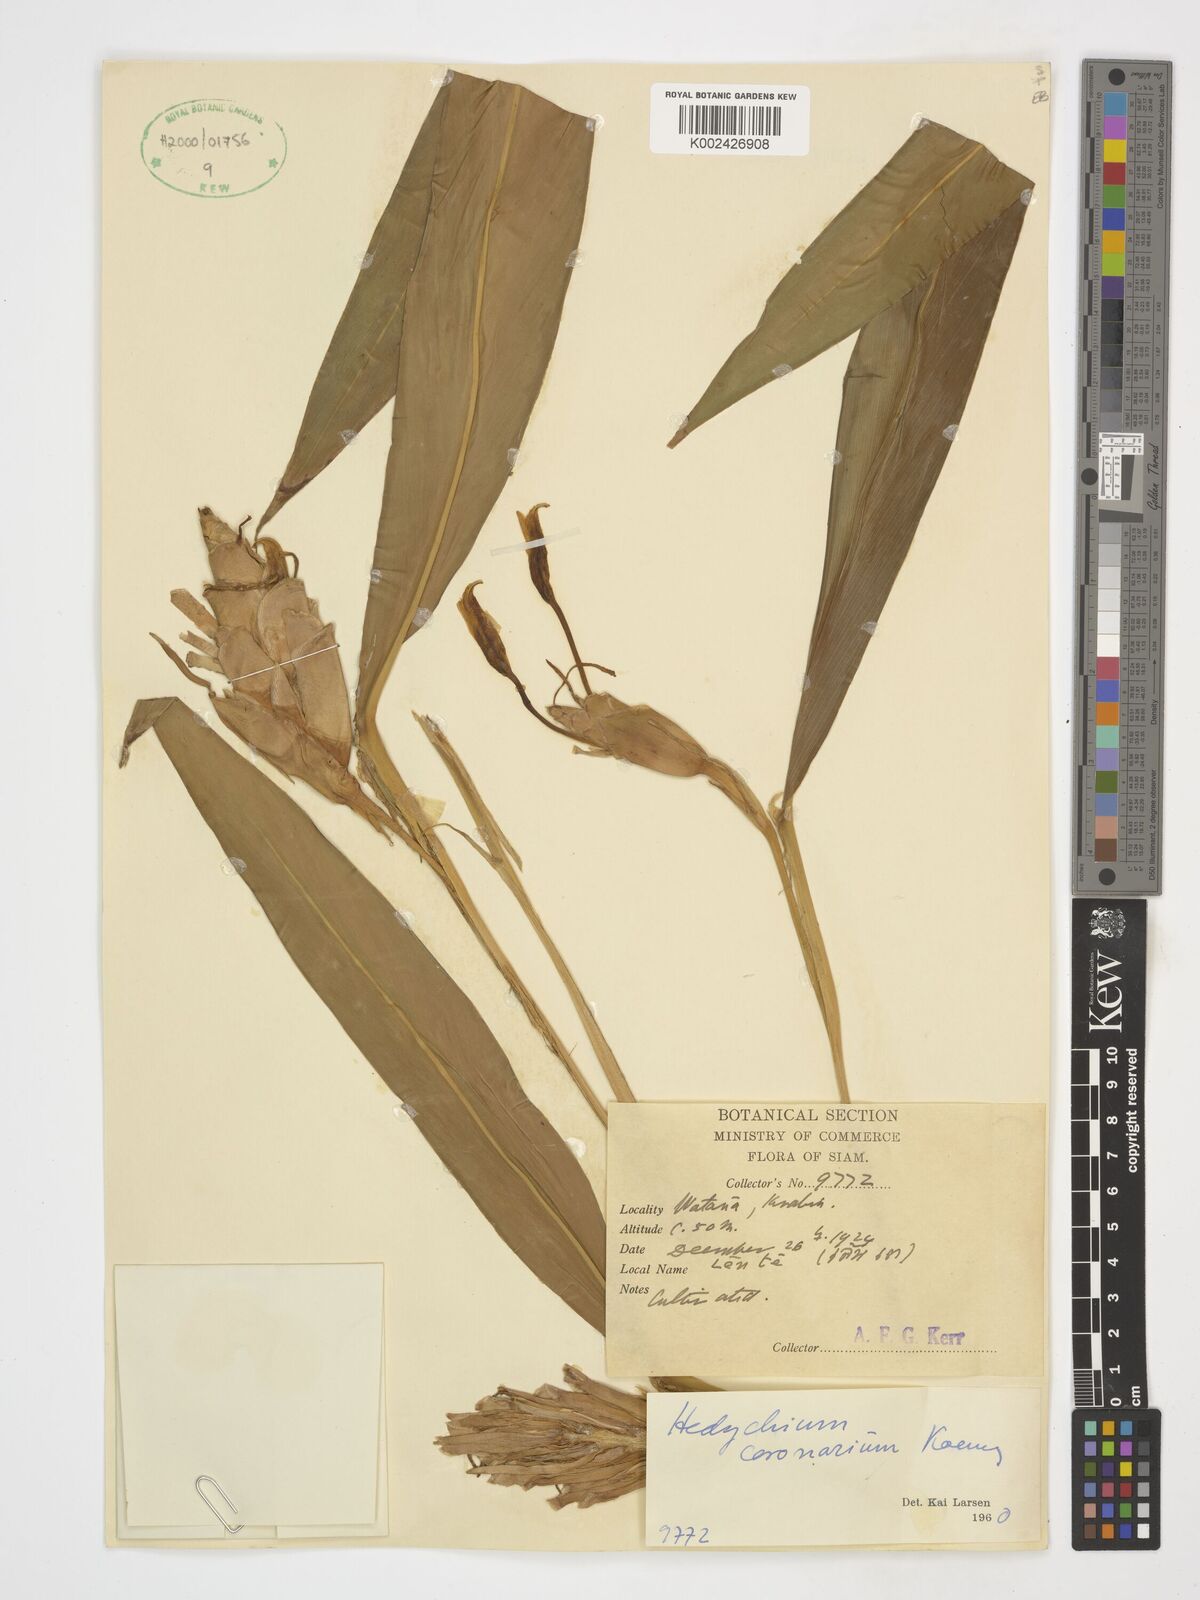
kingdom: Plantae
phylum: Tracheophyta
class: Liliopsida
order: Zingiberales
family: Zingiberaceae
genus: Hedychium
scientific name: Hedychium coronarium
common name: White garland-lily
